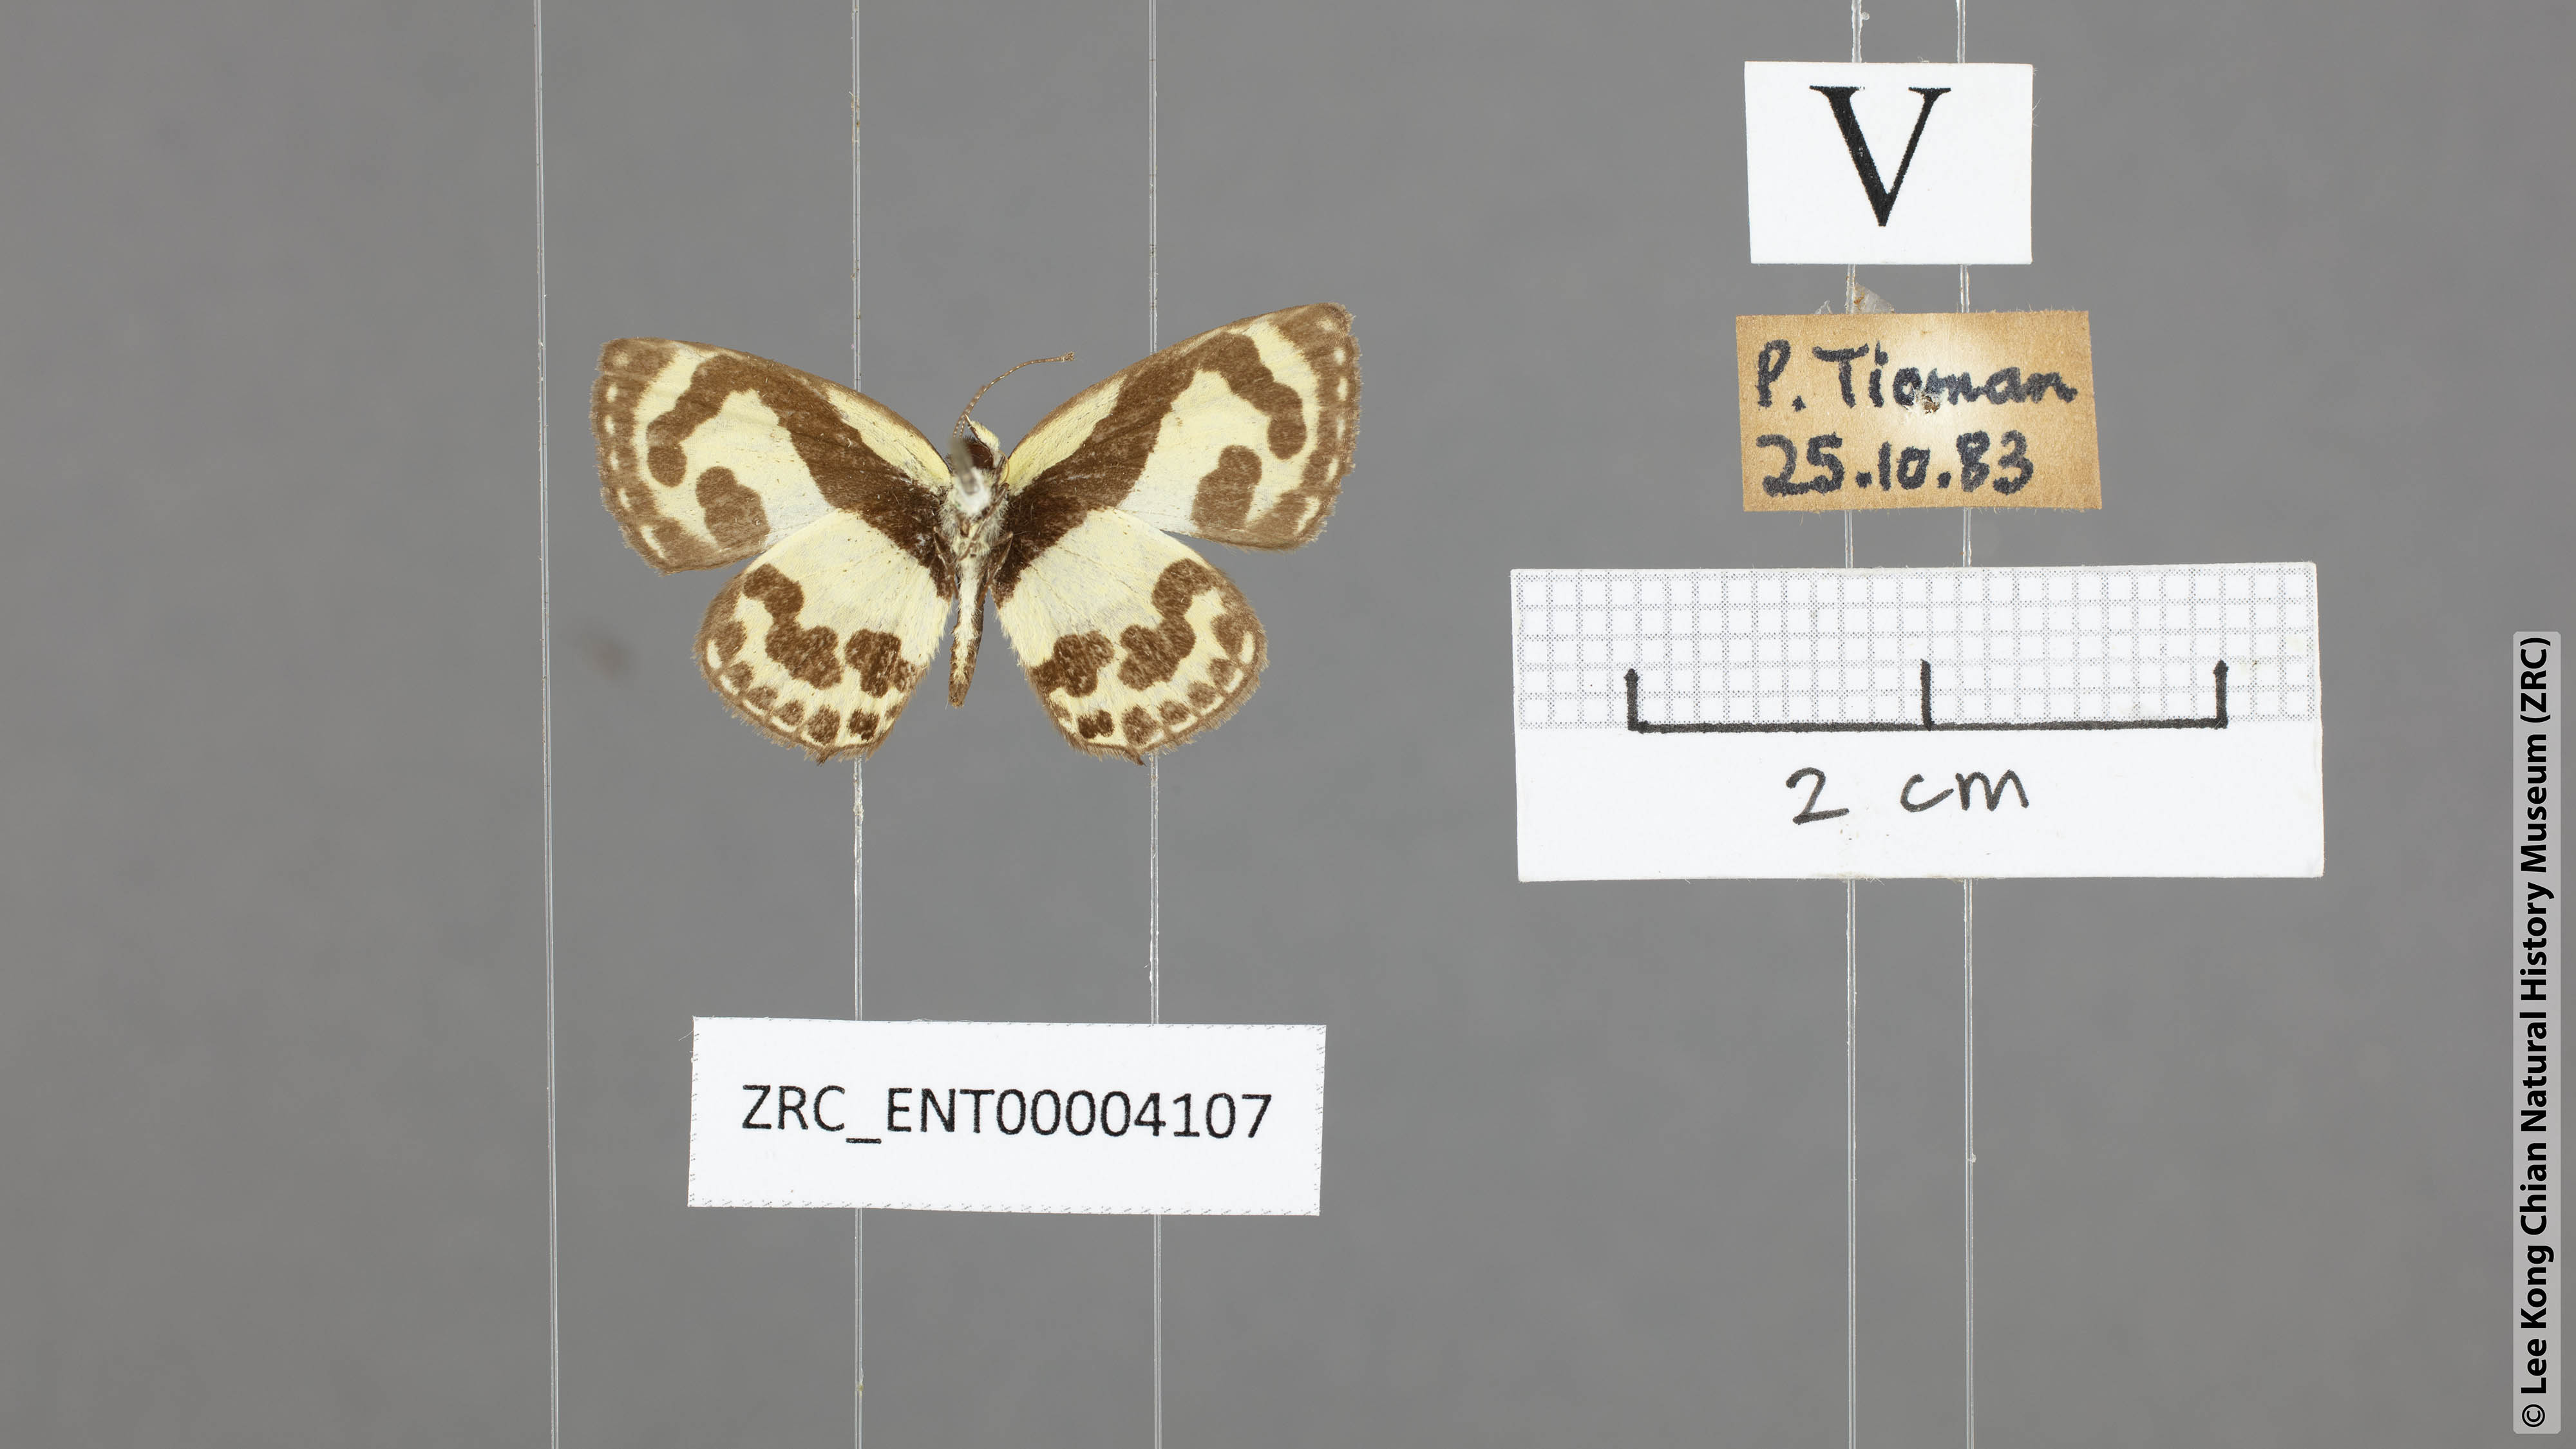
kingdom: Animalia
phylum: Arthropoda
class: Insecta
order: Lepidoptera
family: Lycaenidae
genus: Caleta
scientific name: Caleta roxus
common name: Straight pierrot
